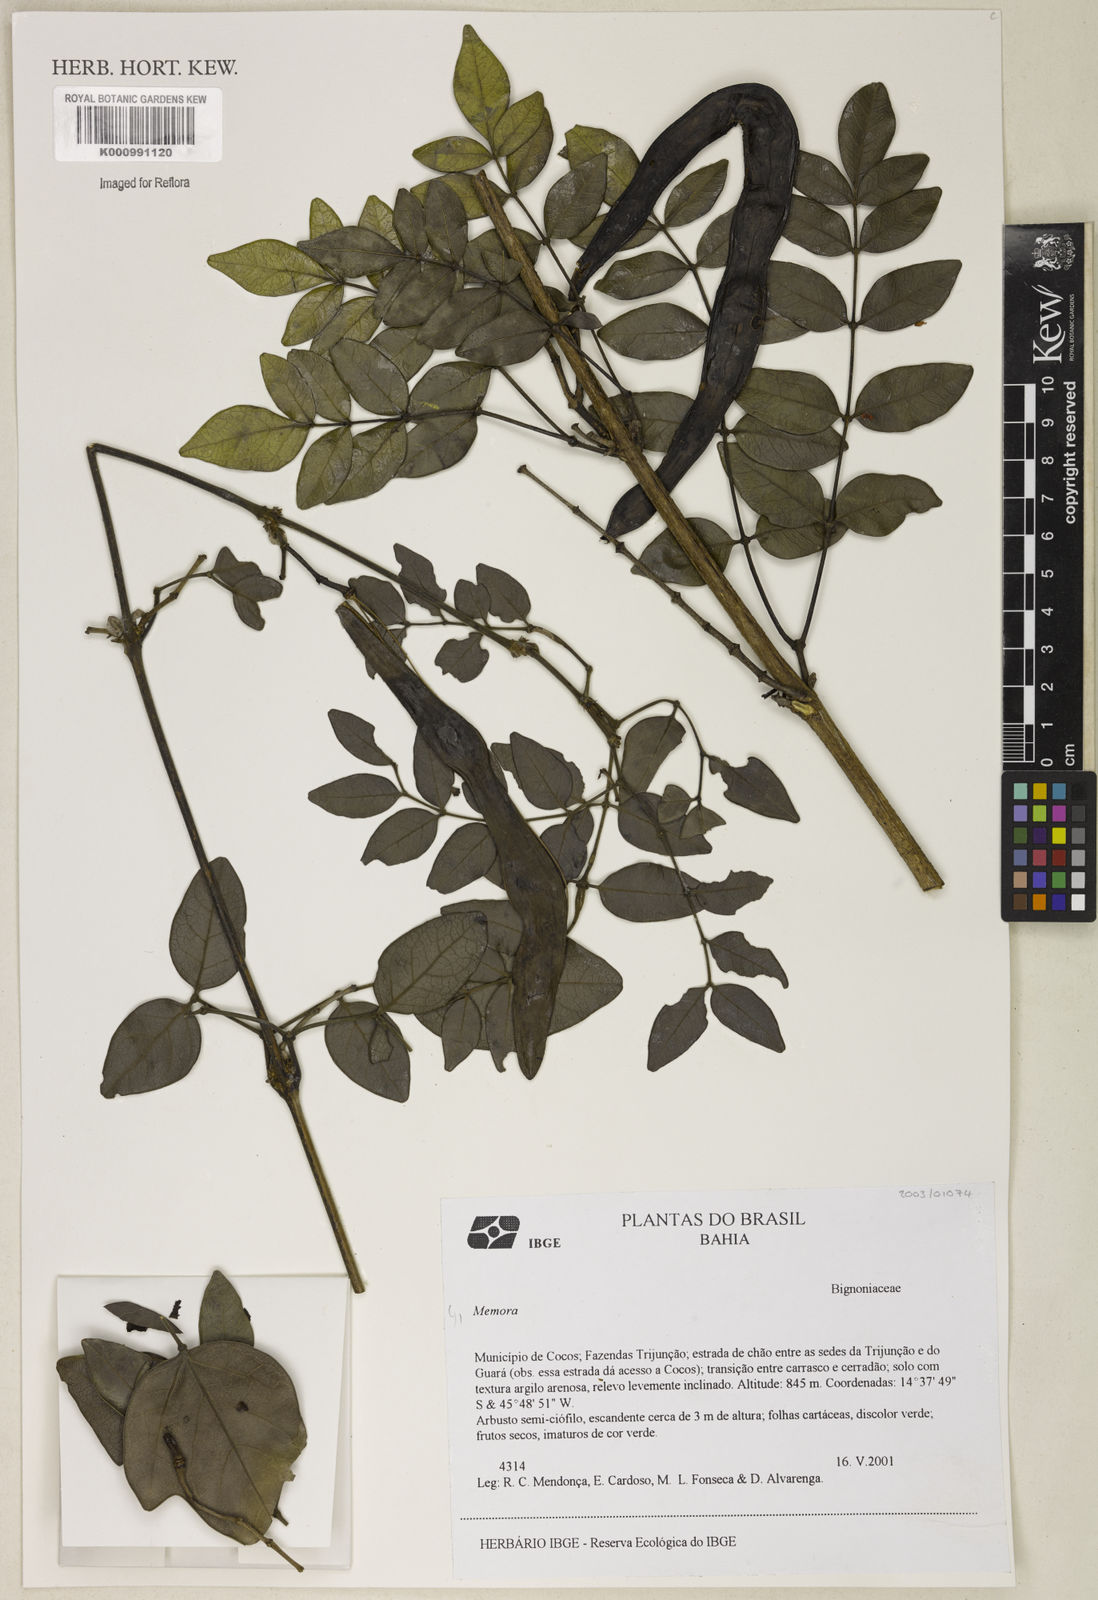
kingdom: Plantae
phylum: Tracheophyta
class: Magnoliopsida
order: Lamiales
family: Bignoniaceae
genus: Adenocalymma
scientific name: Adenocalymma
